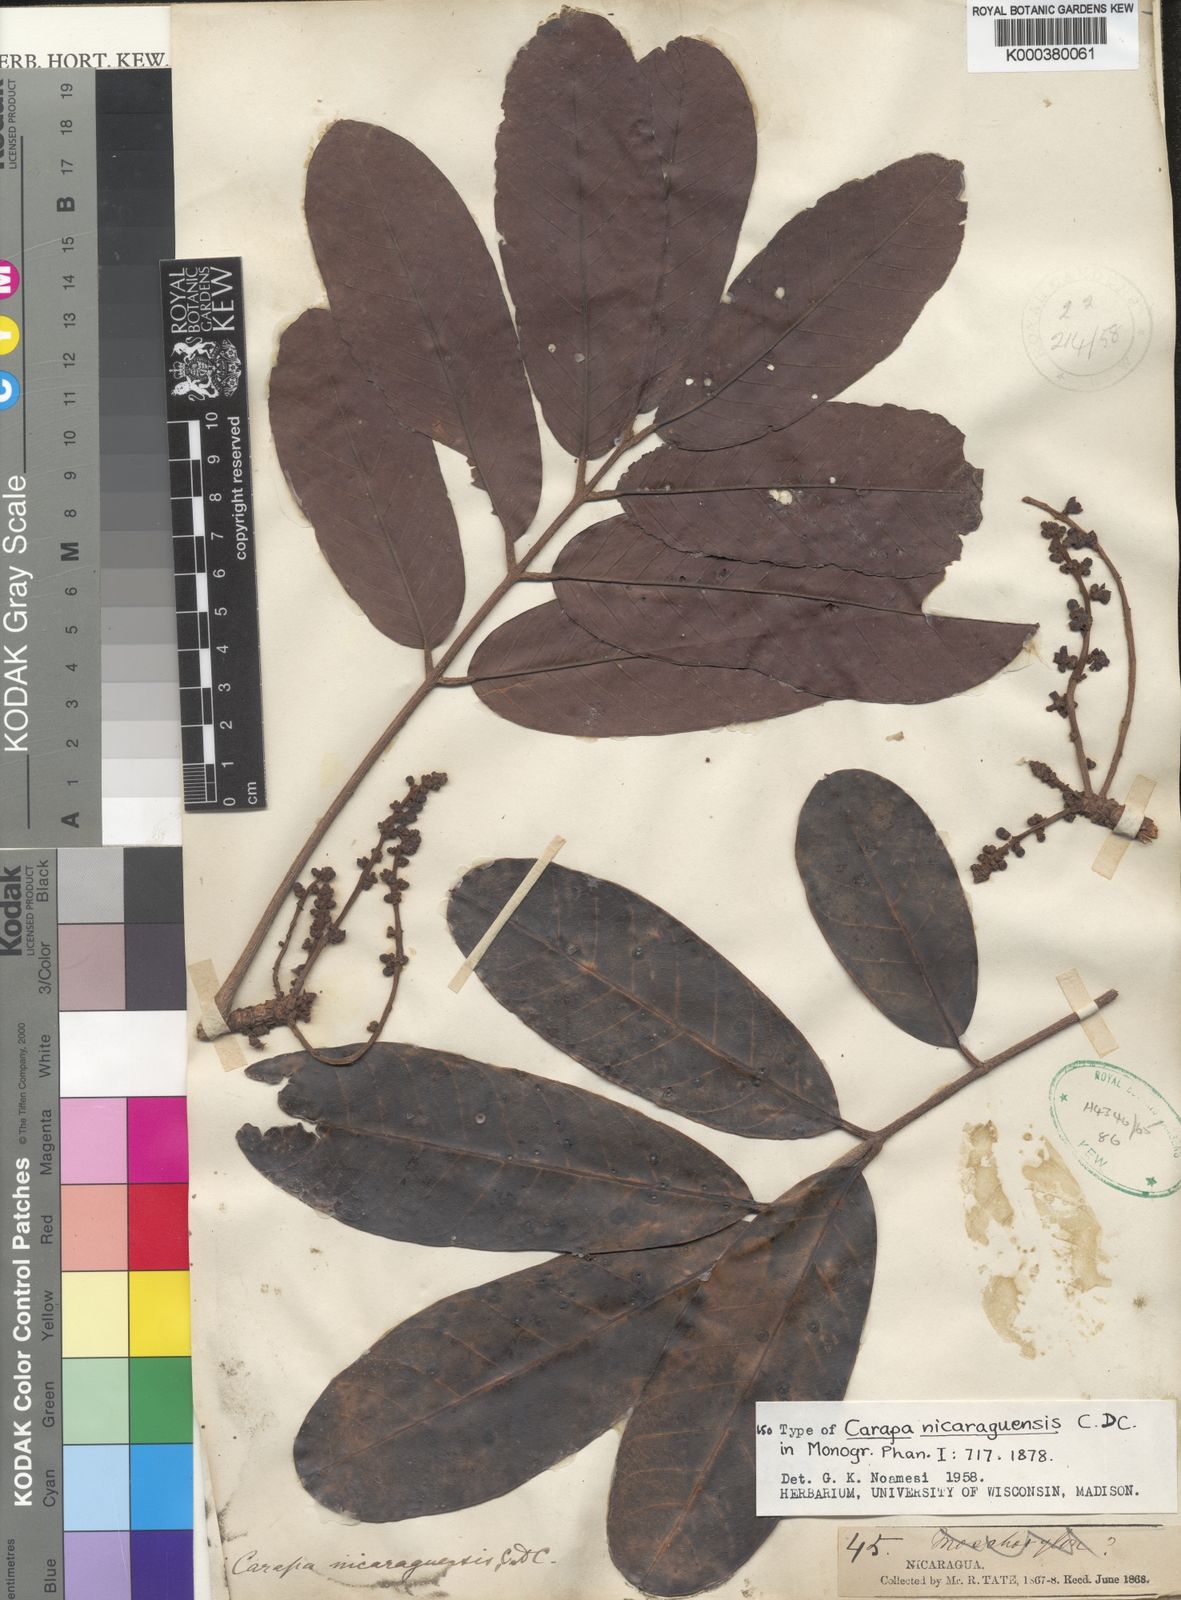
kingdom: Plantae
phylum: Tracheophyta
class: Magnoliopsida
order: Sapindales
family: Meliaceae
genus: Carapa
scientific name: Carapa guianensis
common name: Crabwood
